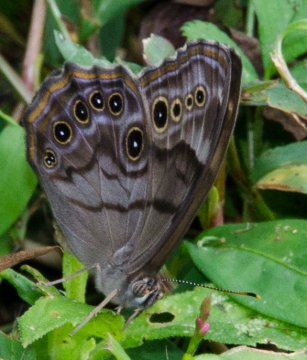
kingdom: Animalia
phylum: Arthropoda
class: Insecta
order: Lepidoptera
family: Nymphalidae
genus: Lethe
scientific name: Lethe anthedon
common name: Northern Pearly-Eye
